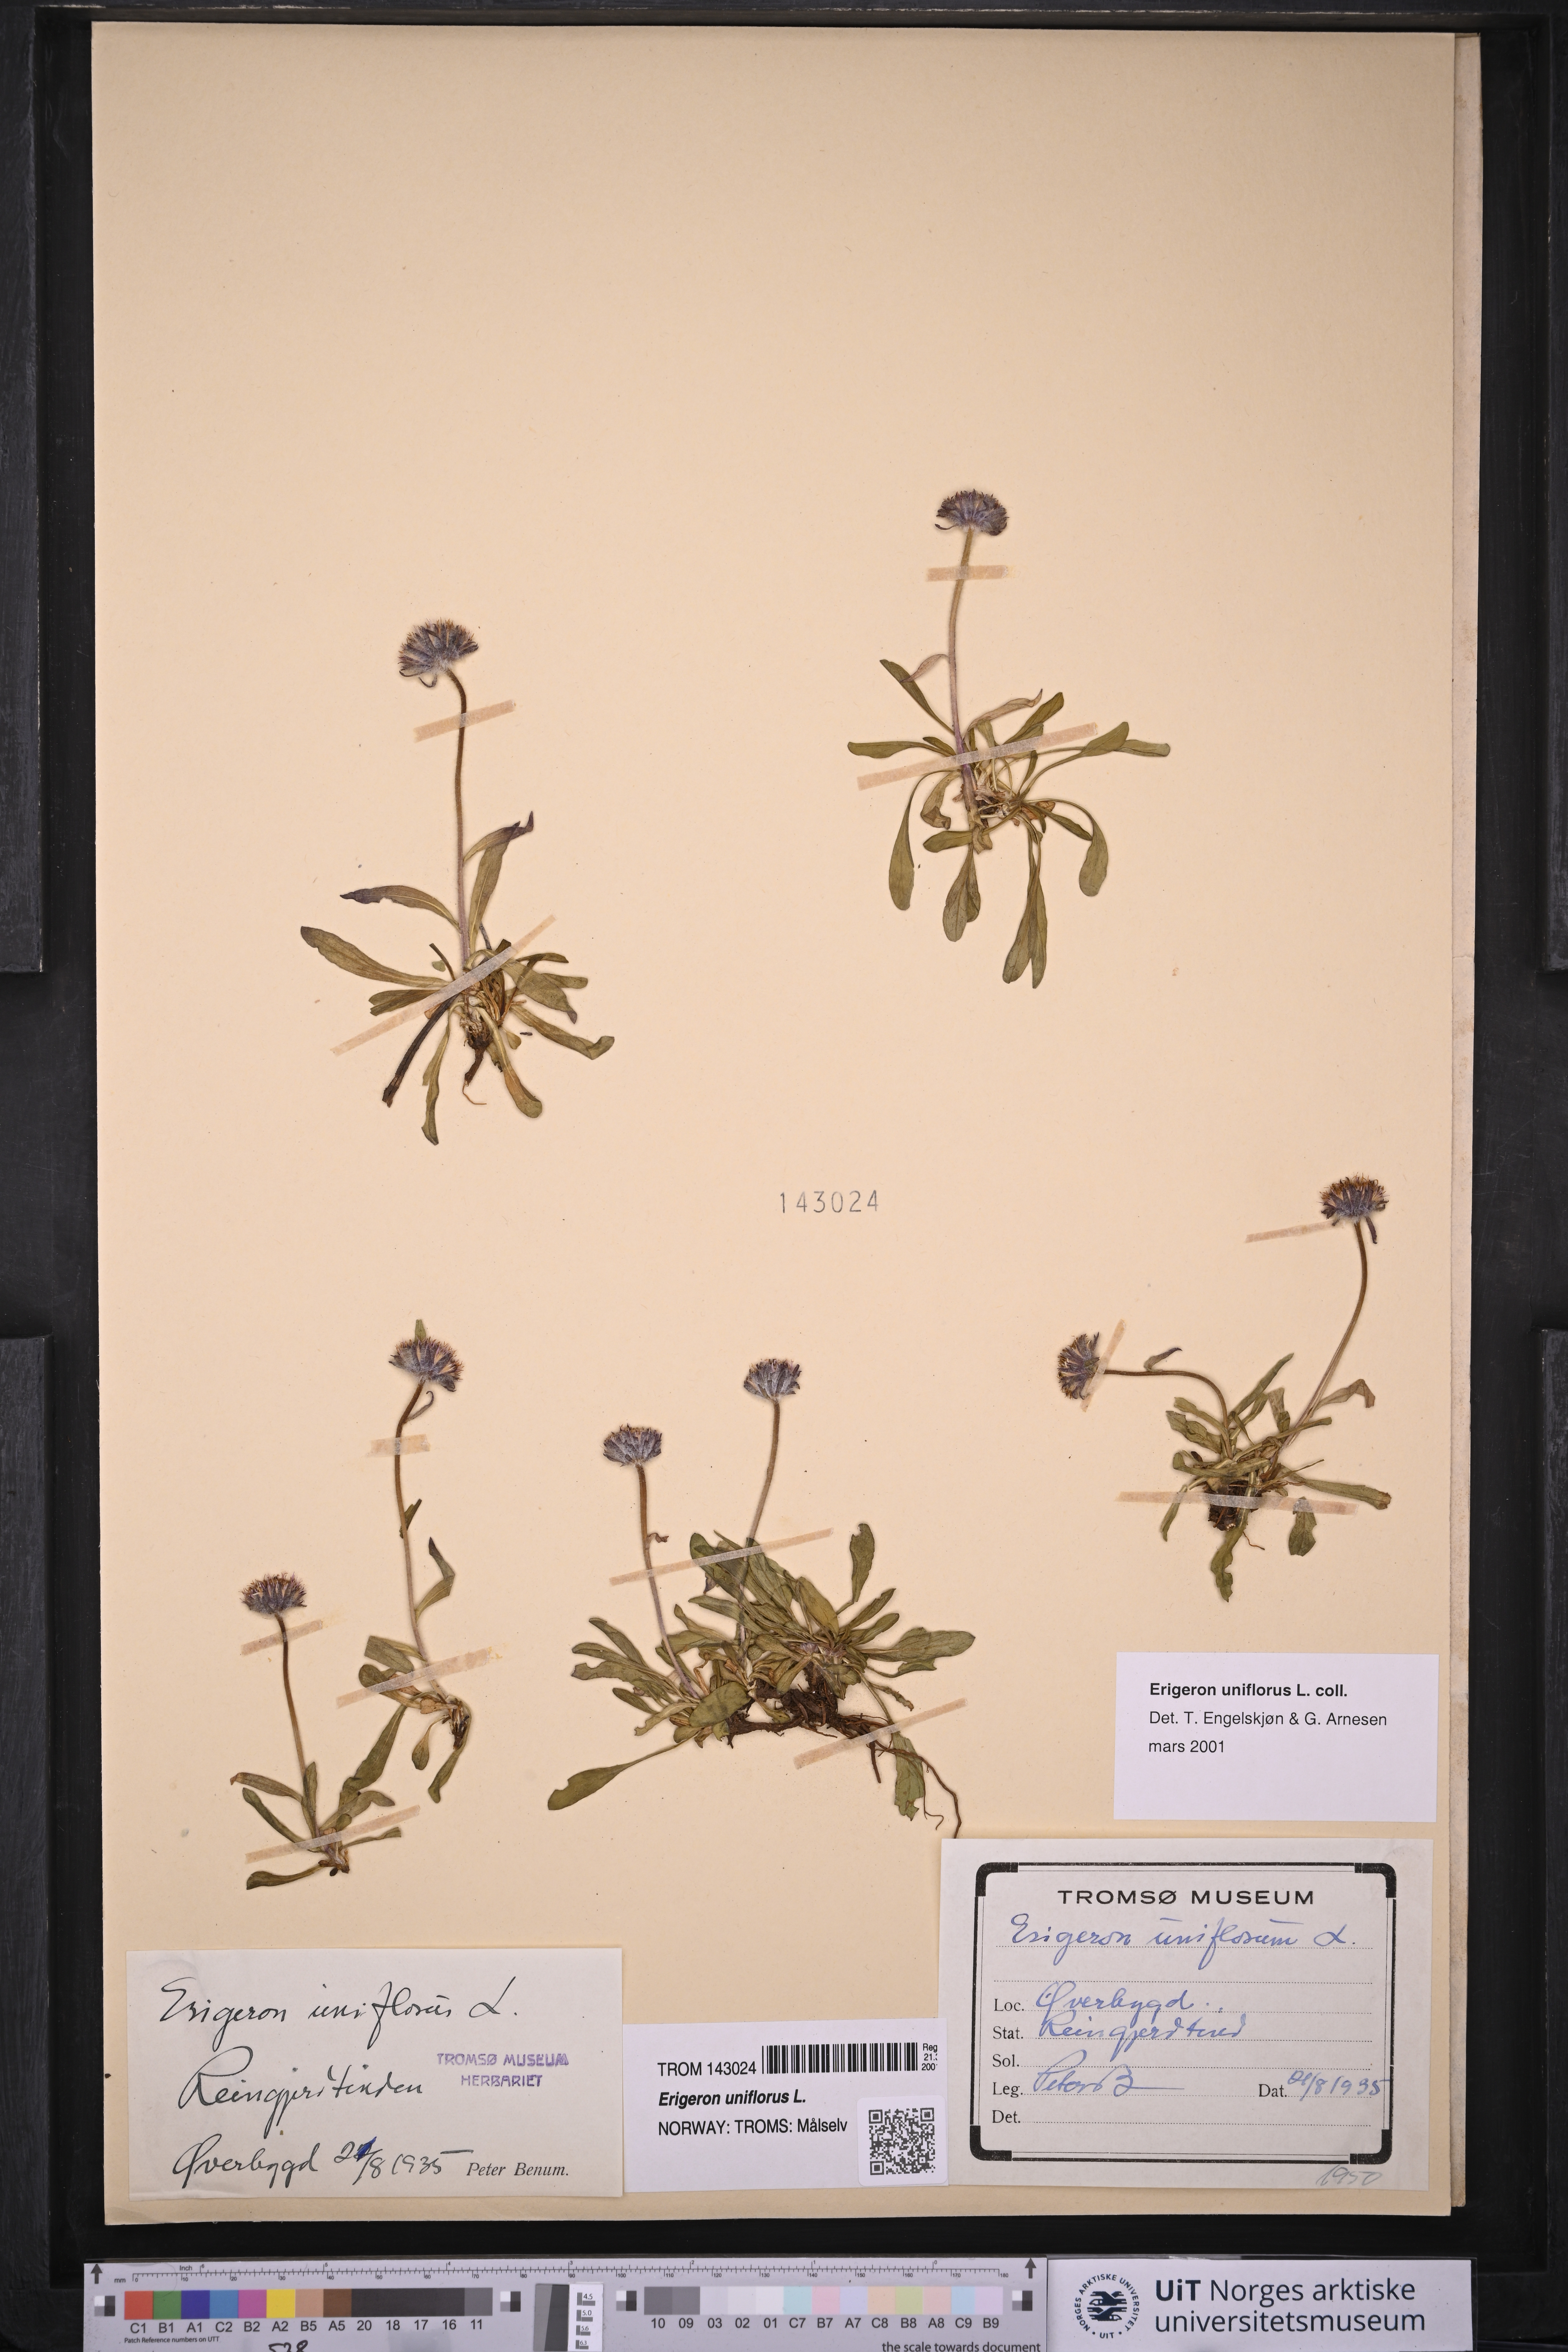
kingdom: Plantae
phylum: Tracheophyta
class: Magnoliopsida
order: Asterales
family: Asteraceae
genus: Erigeron
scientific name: Erigeron uniflorus
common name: Northern daisy
